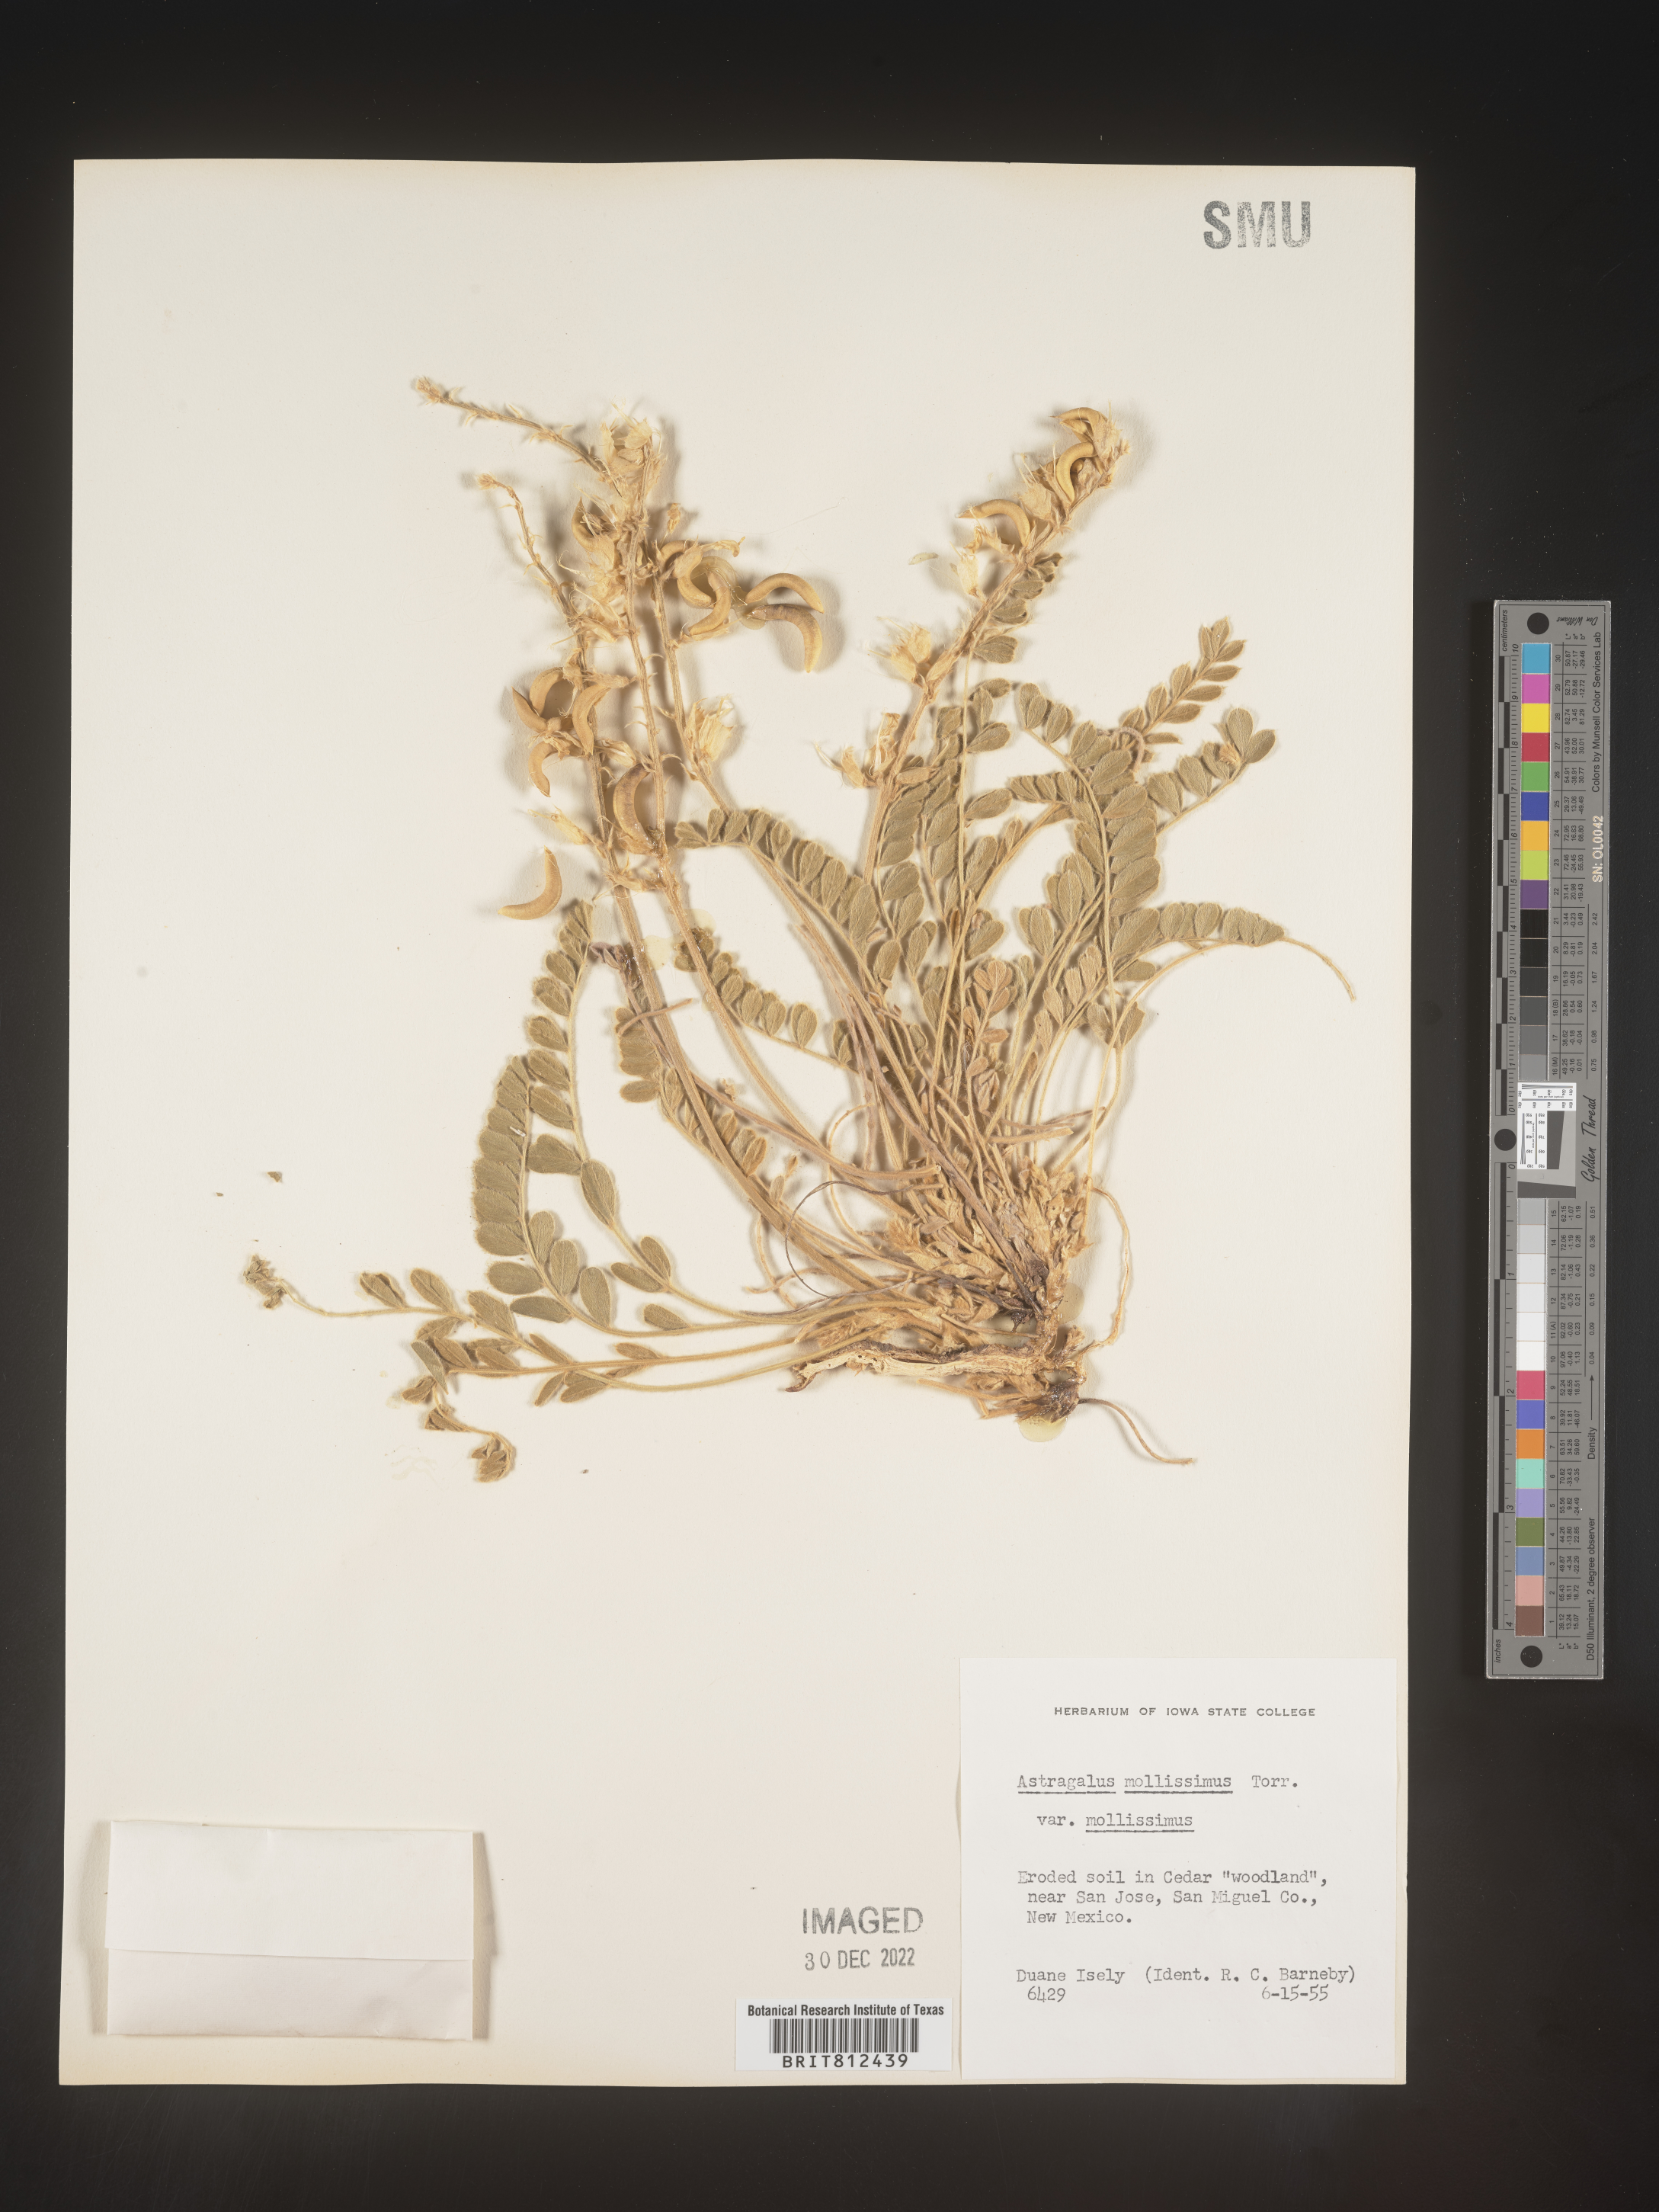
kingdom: Plantae
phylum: Tracheophyta
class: Magnoliopsida
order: Fabales
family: Fabaceae
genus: Astragalus
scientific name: Astragalus
